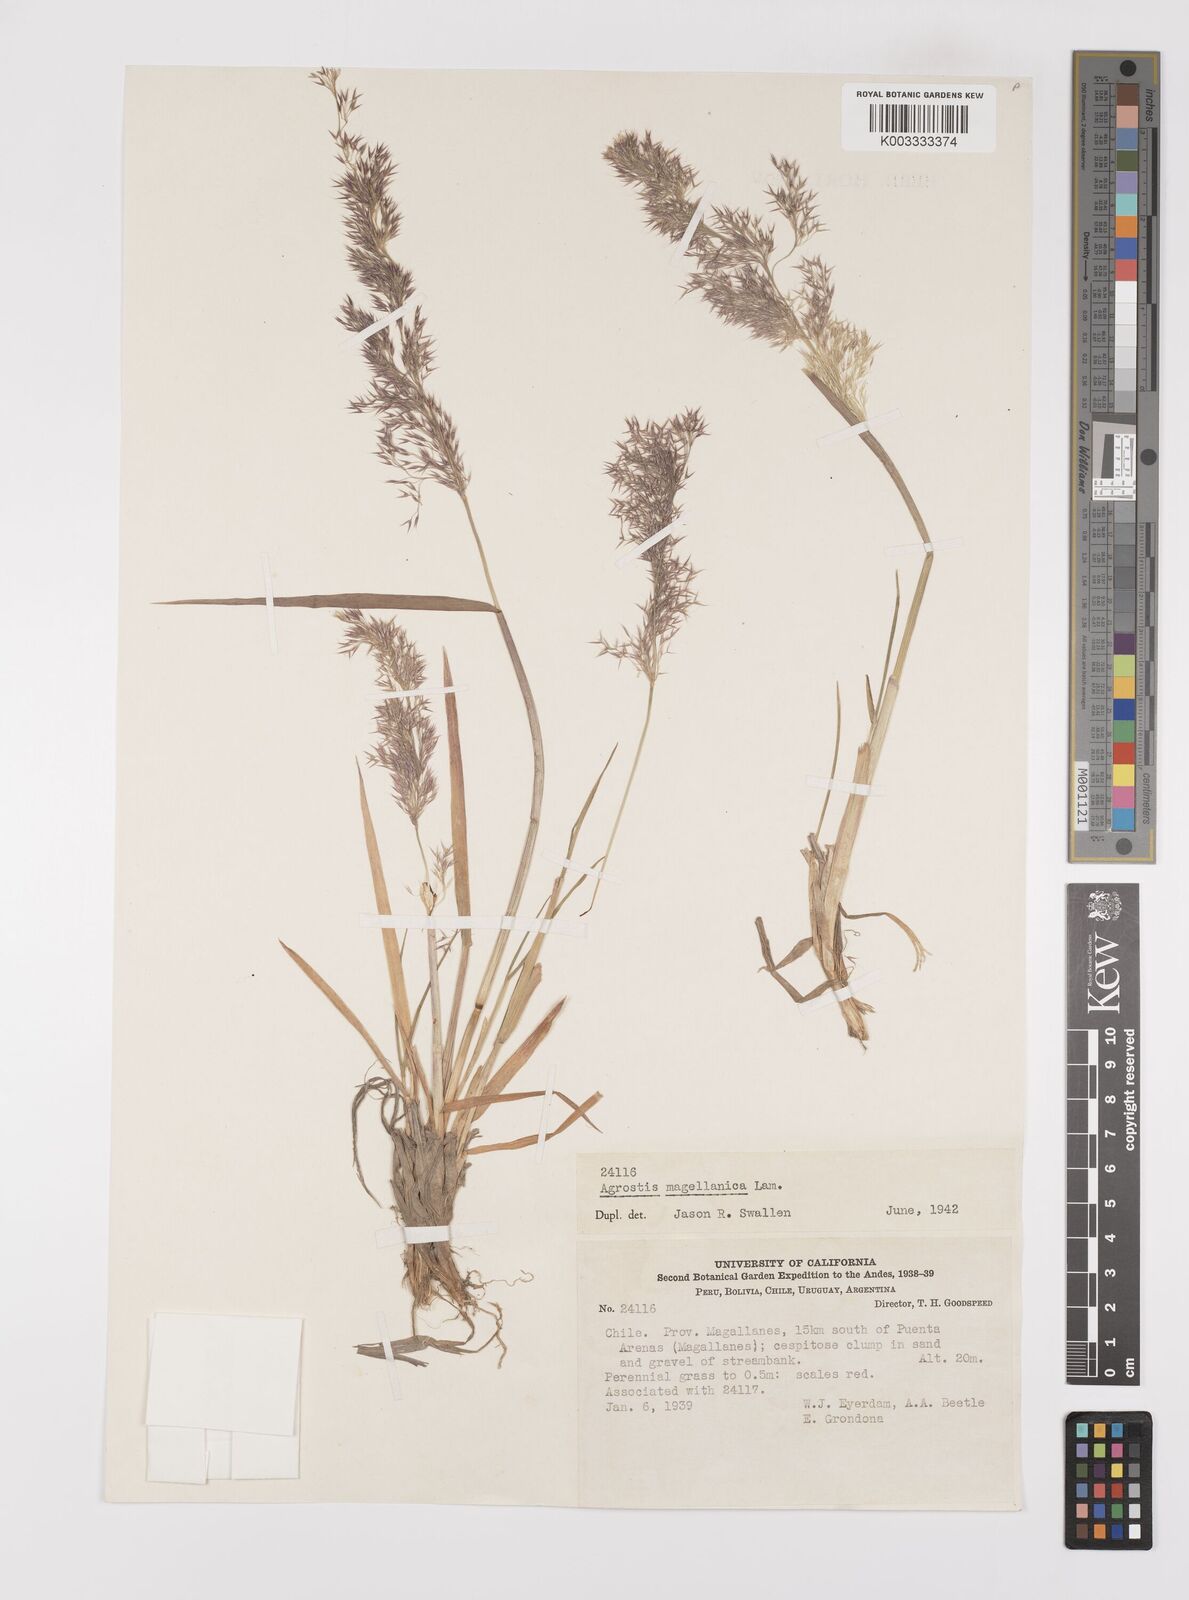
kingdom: Plantae
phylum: Tracheophyta
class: Liliopsida
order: Poales
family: Poaceae
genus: Polypogon
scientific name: Polypogon magellanicus
